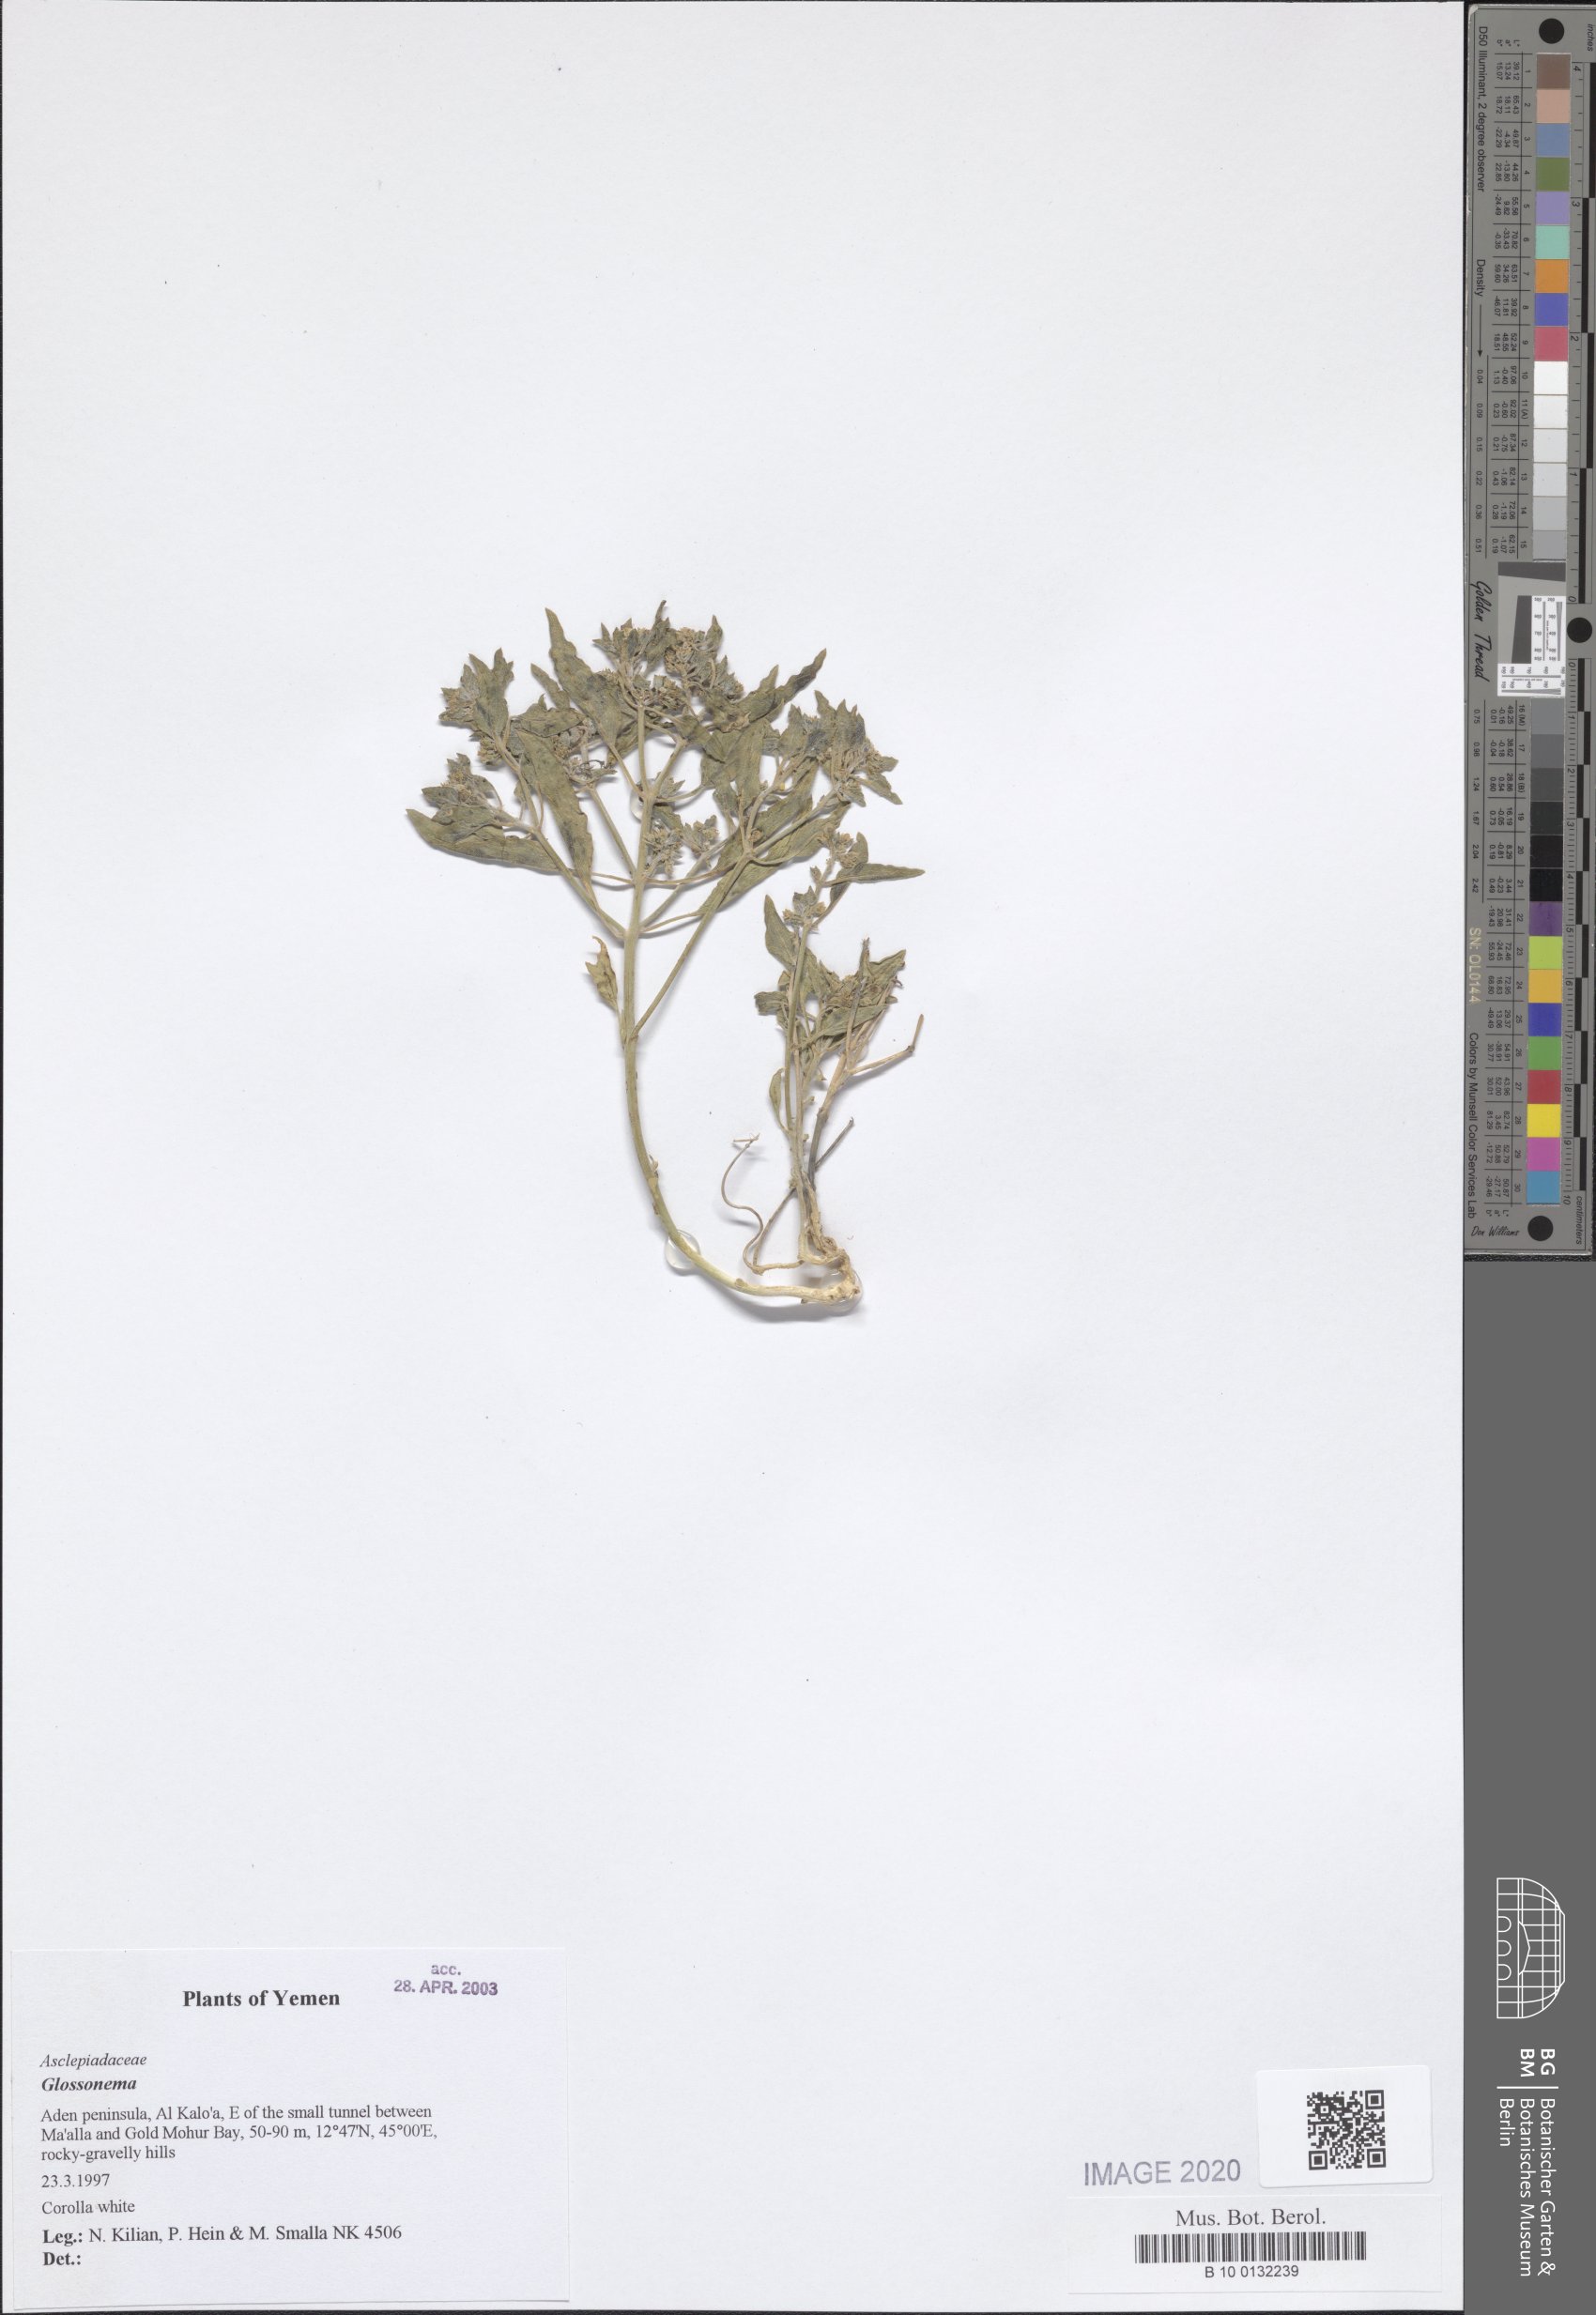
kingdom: Plantae
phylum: Tracheophyta
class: Magnoliopsida
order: Gentianales
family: Apocynaceae
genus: Cynanchum
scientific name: Cynanchum boveanum
